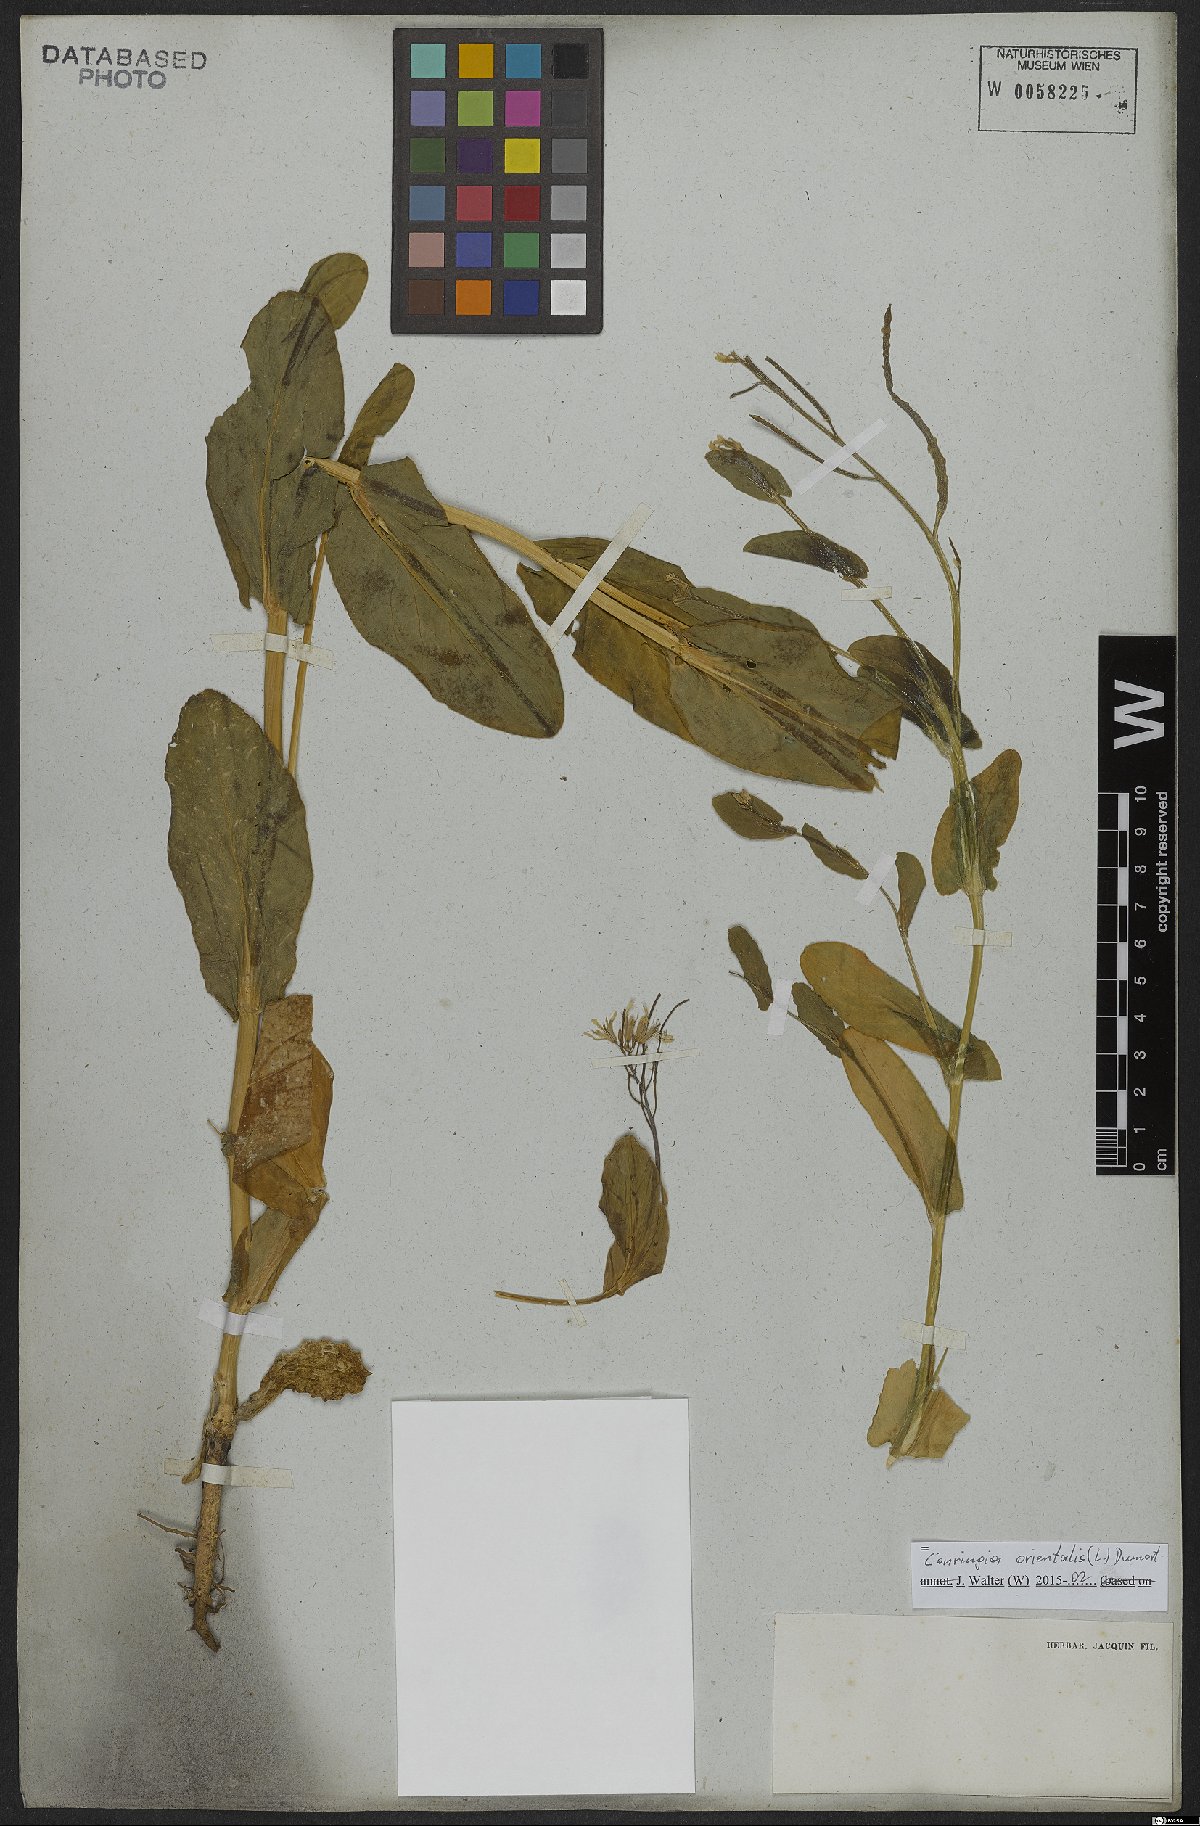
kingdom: Plantae
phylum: Tracheophyta
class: Magnoliopsida
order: Brassicales
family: Brassicaceae
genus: Conringia
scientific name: Conringia orientalis
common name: Hare's ear mustard
